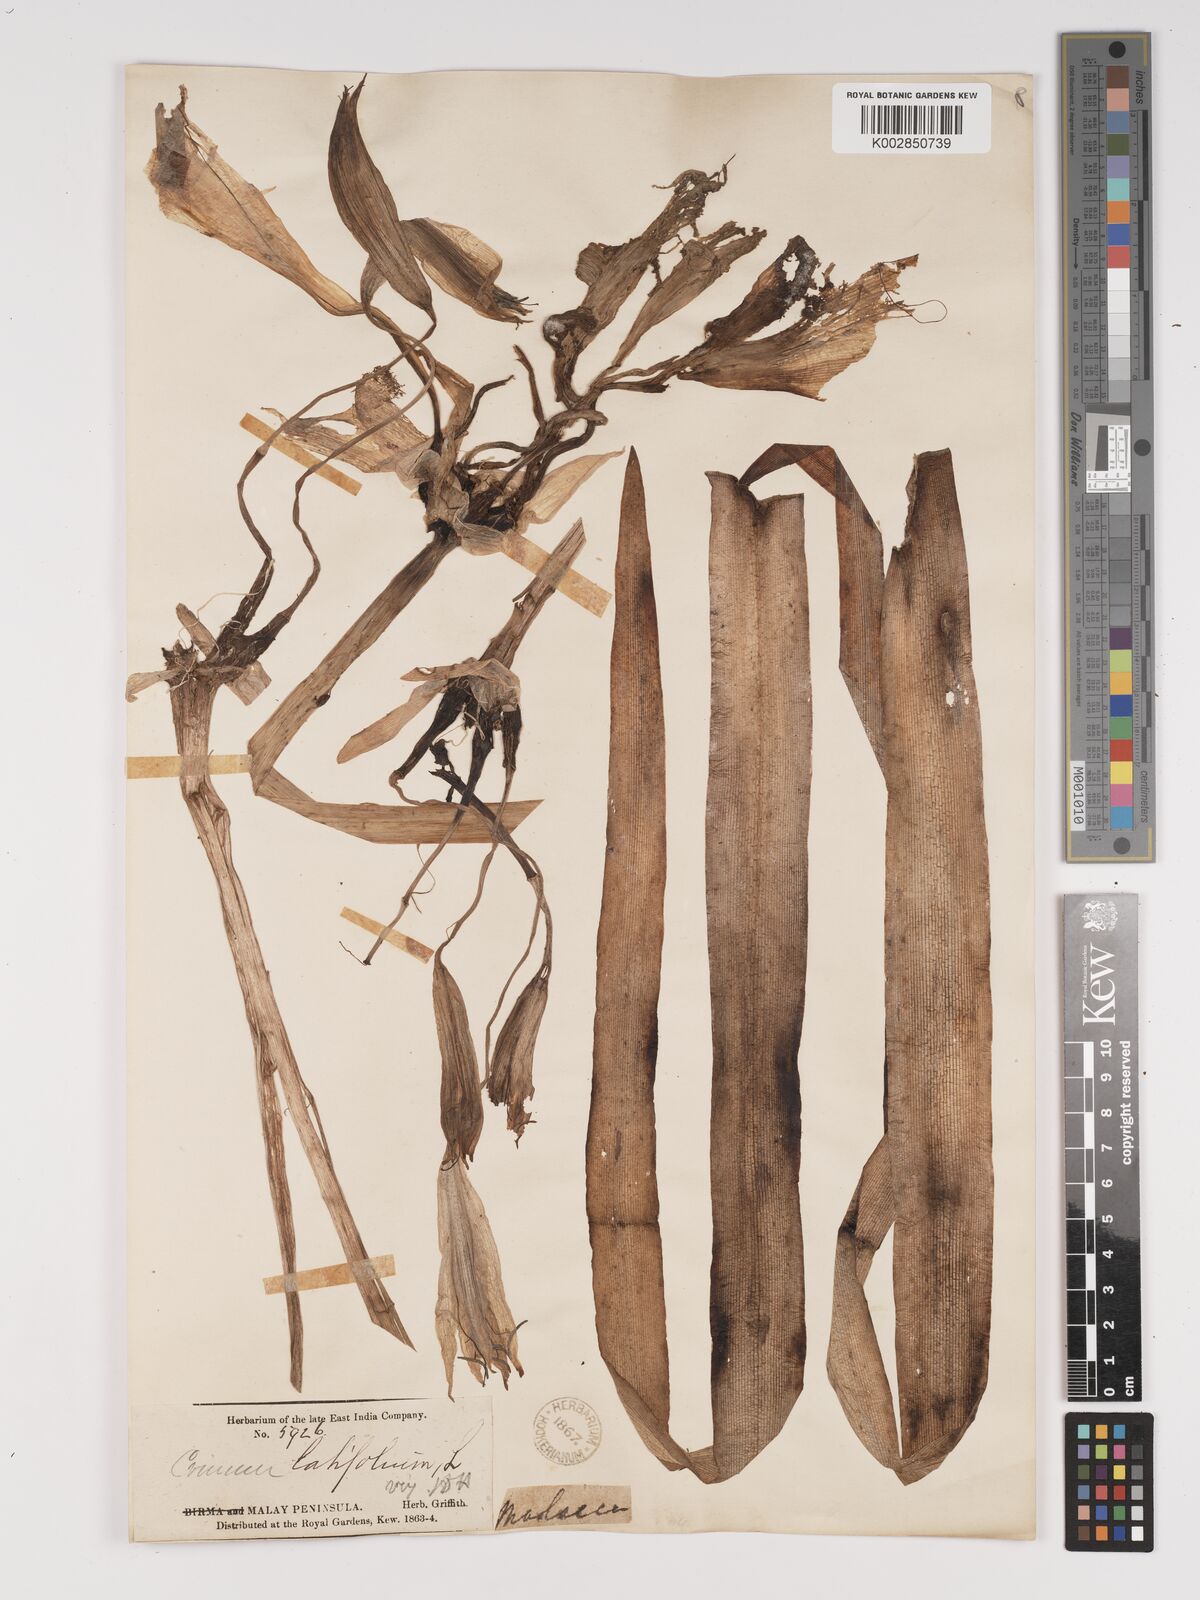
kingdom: Plantae
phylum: Tracheophyta
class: Liliopsida
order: Asparagales
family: Amaryllidaceae
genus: Crinum
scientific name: Crinum zeylanicum
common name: Ceylon swamplily
